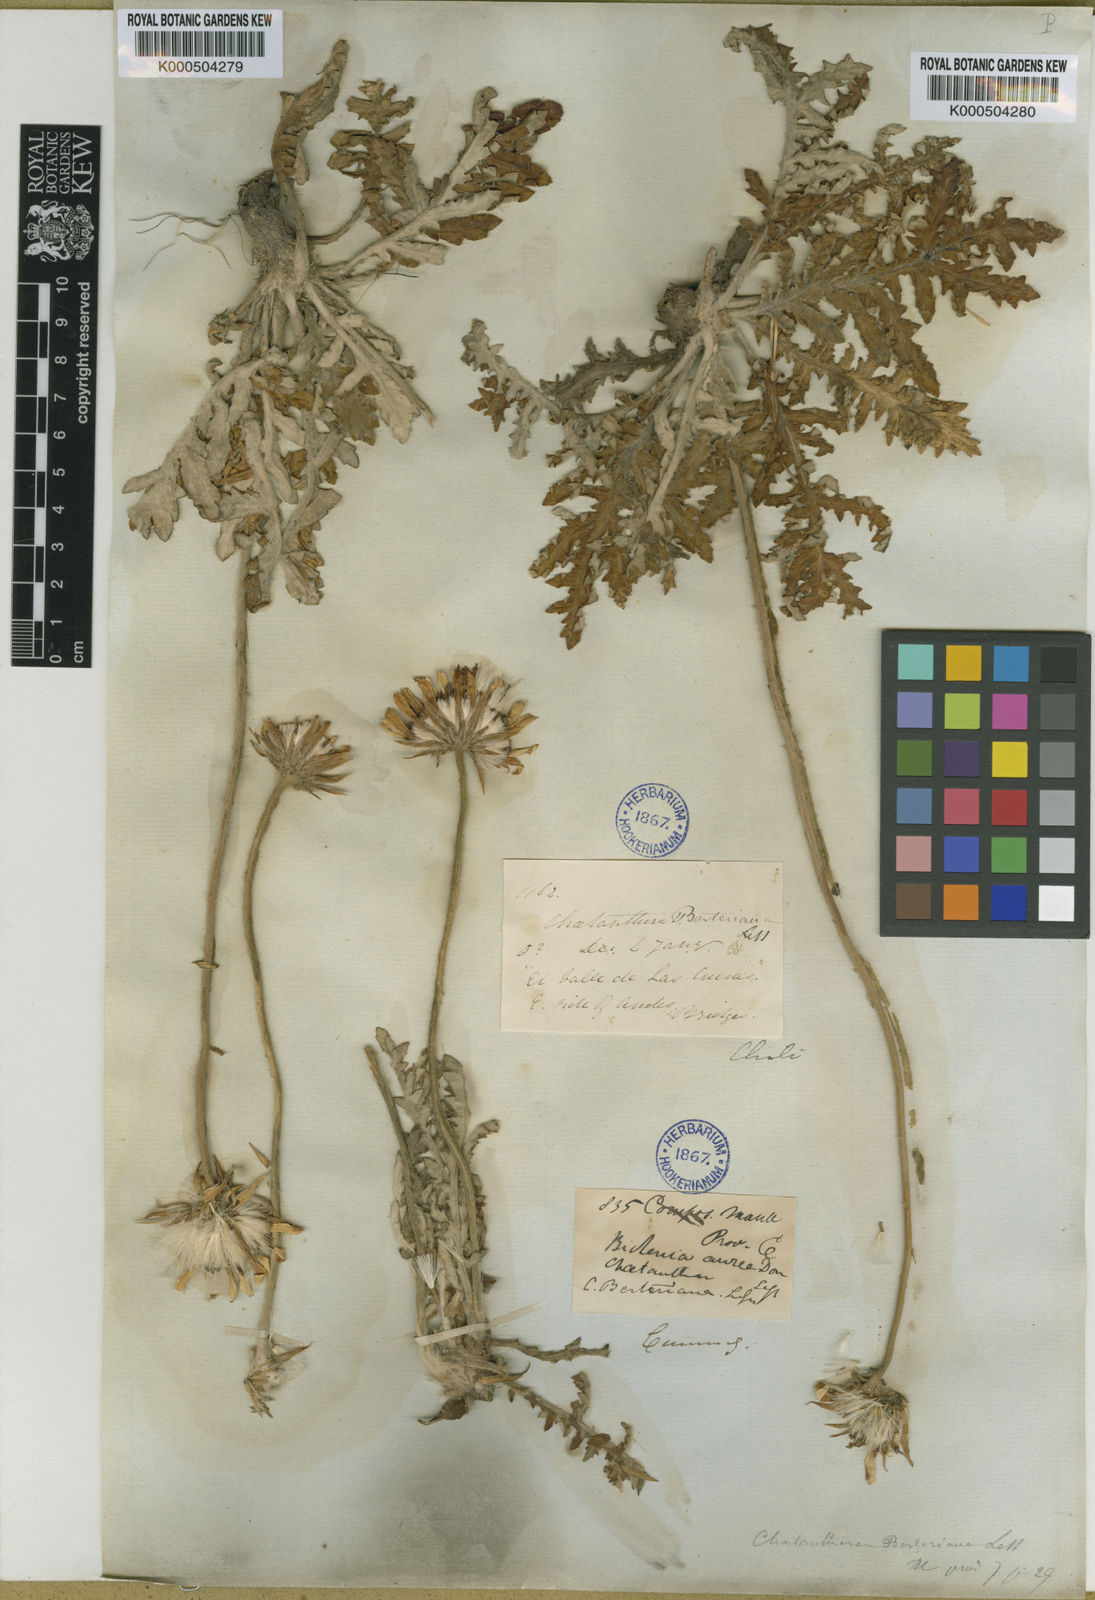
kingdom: Plantae
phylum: Tracheophyta
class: Magnoliopsida
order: Asterales
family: Asteraceae
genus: Trichocline
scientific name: Trichocline aurea
